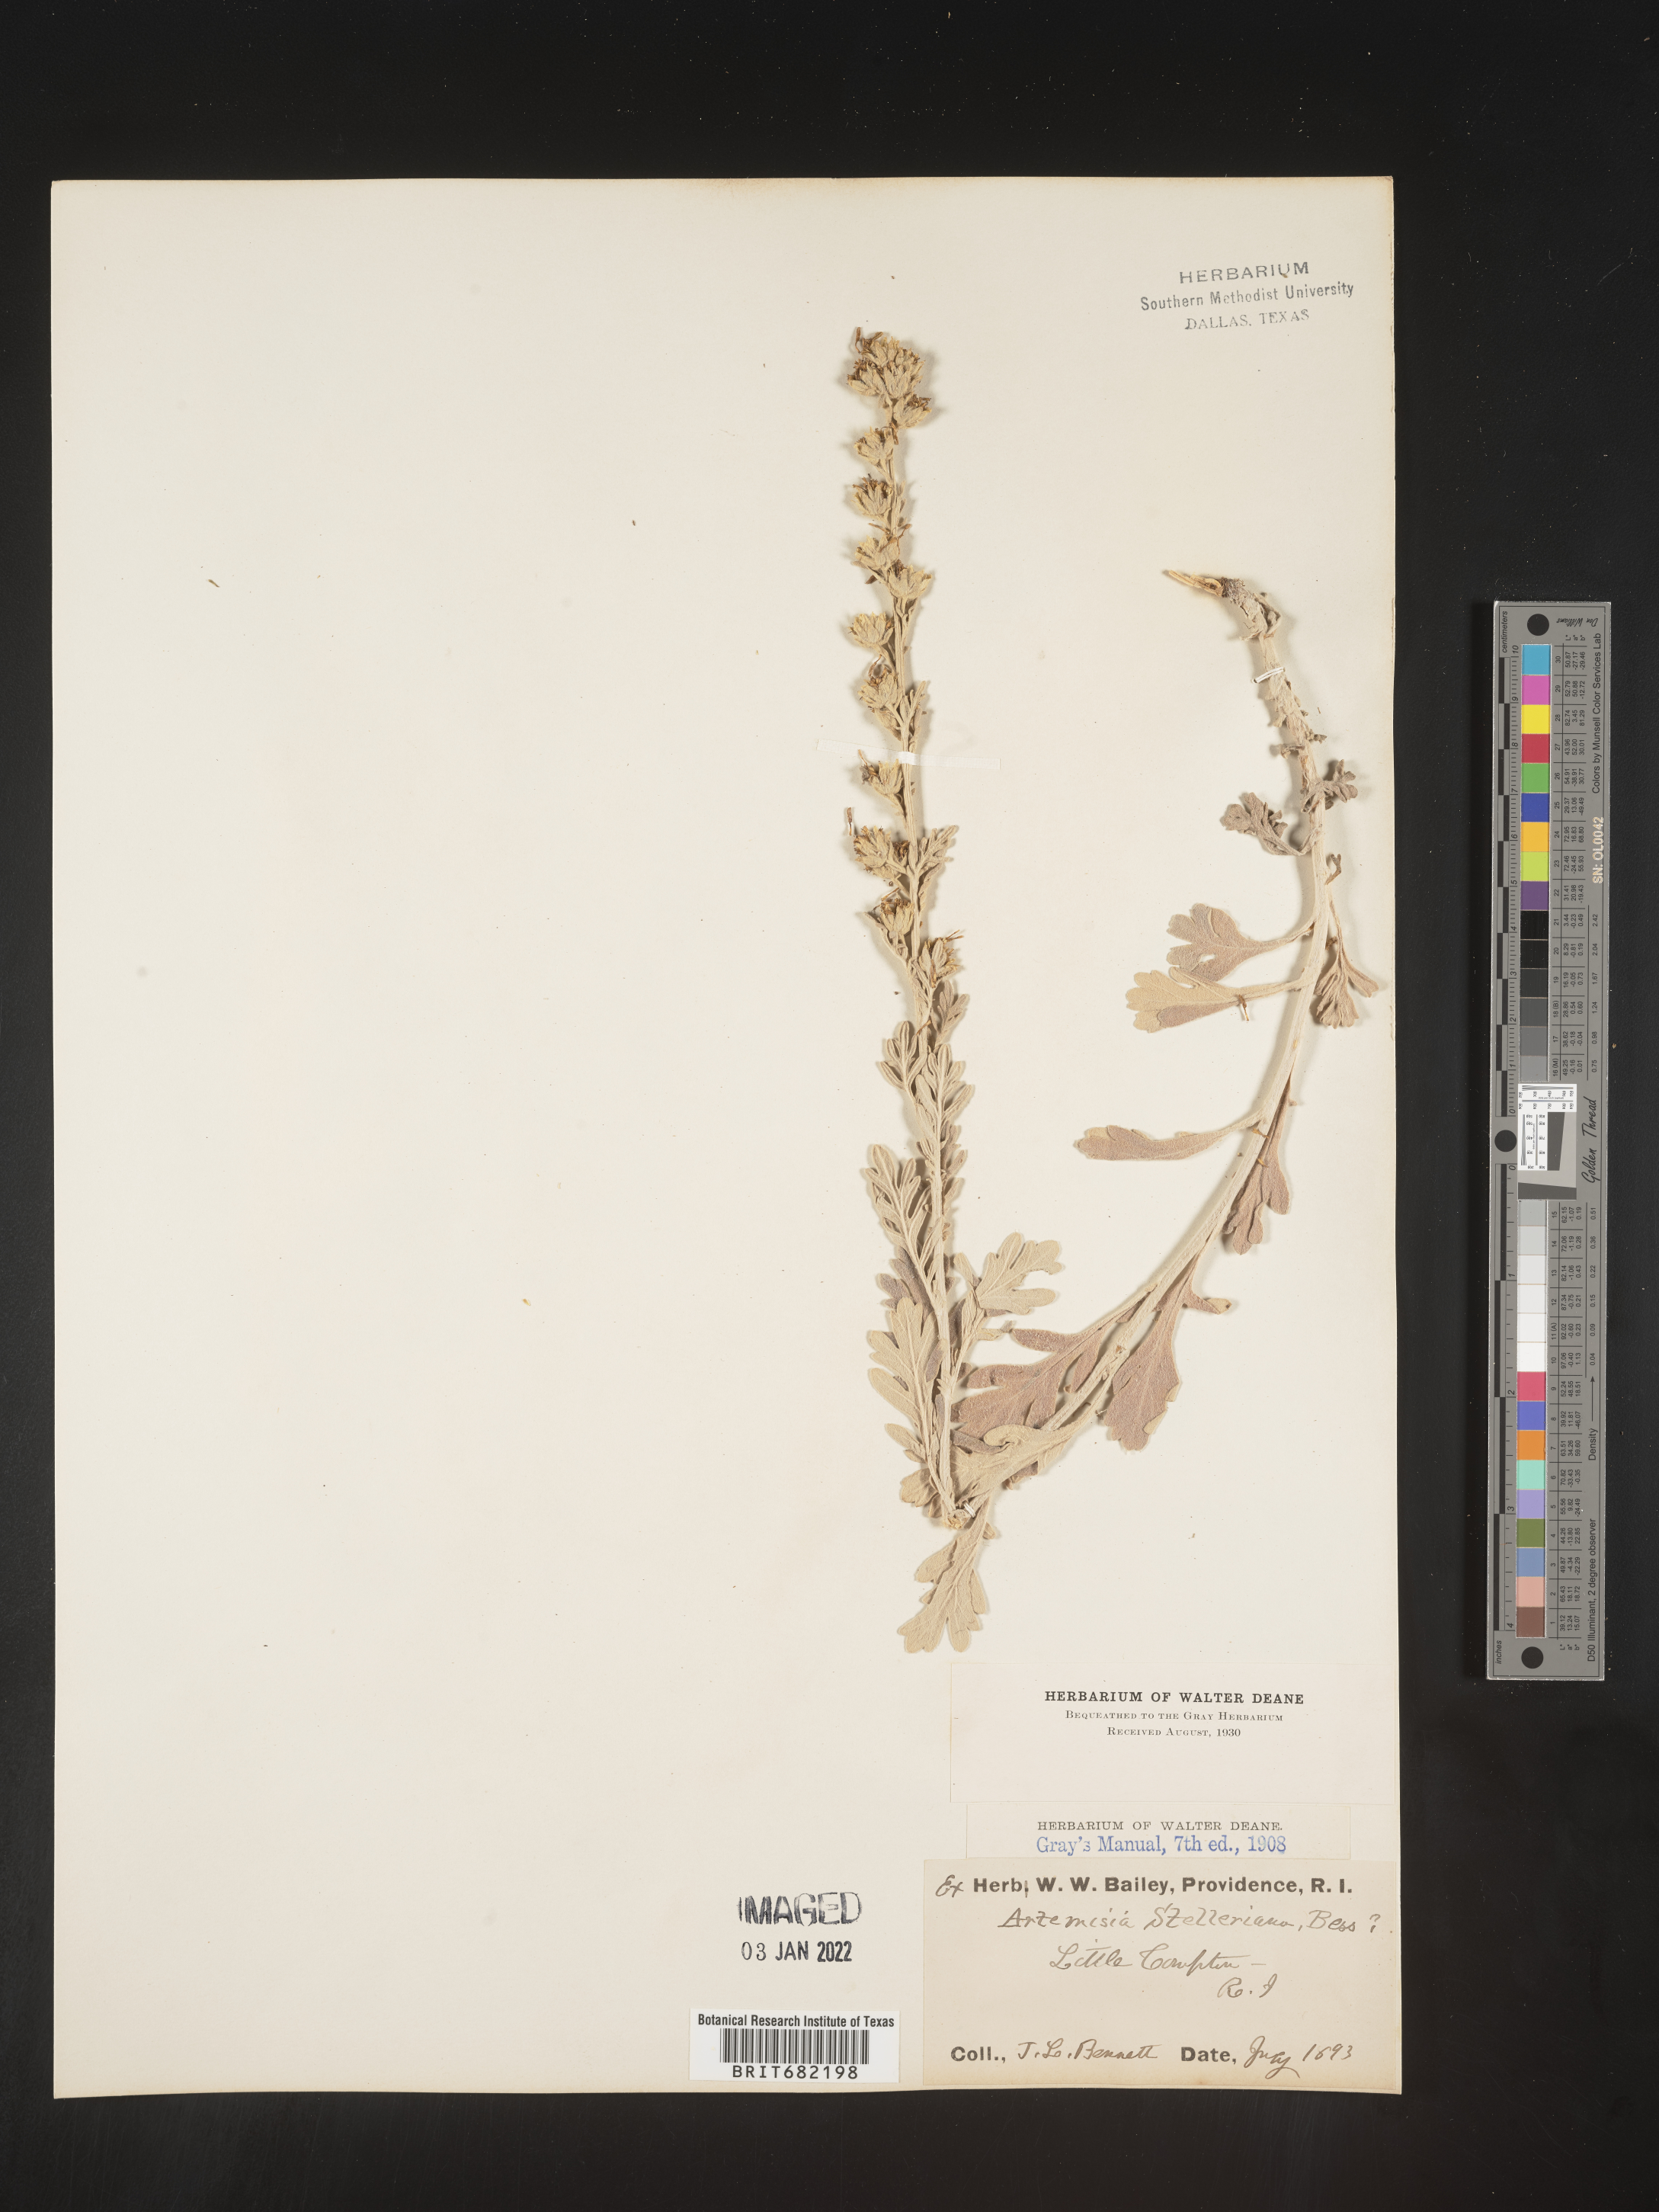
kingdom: Plantae
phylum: Tracheophyta
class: Magnoliopsida
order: Asterales
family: Asteraceae
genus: Artemisia
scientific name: Artemisia stelleriana
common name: Beach wormwood
